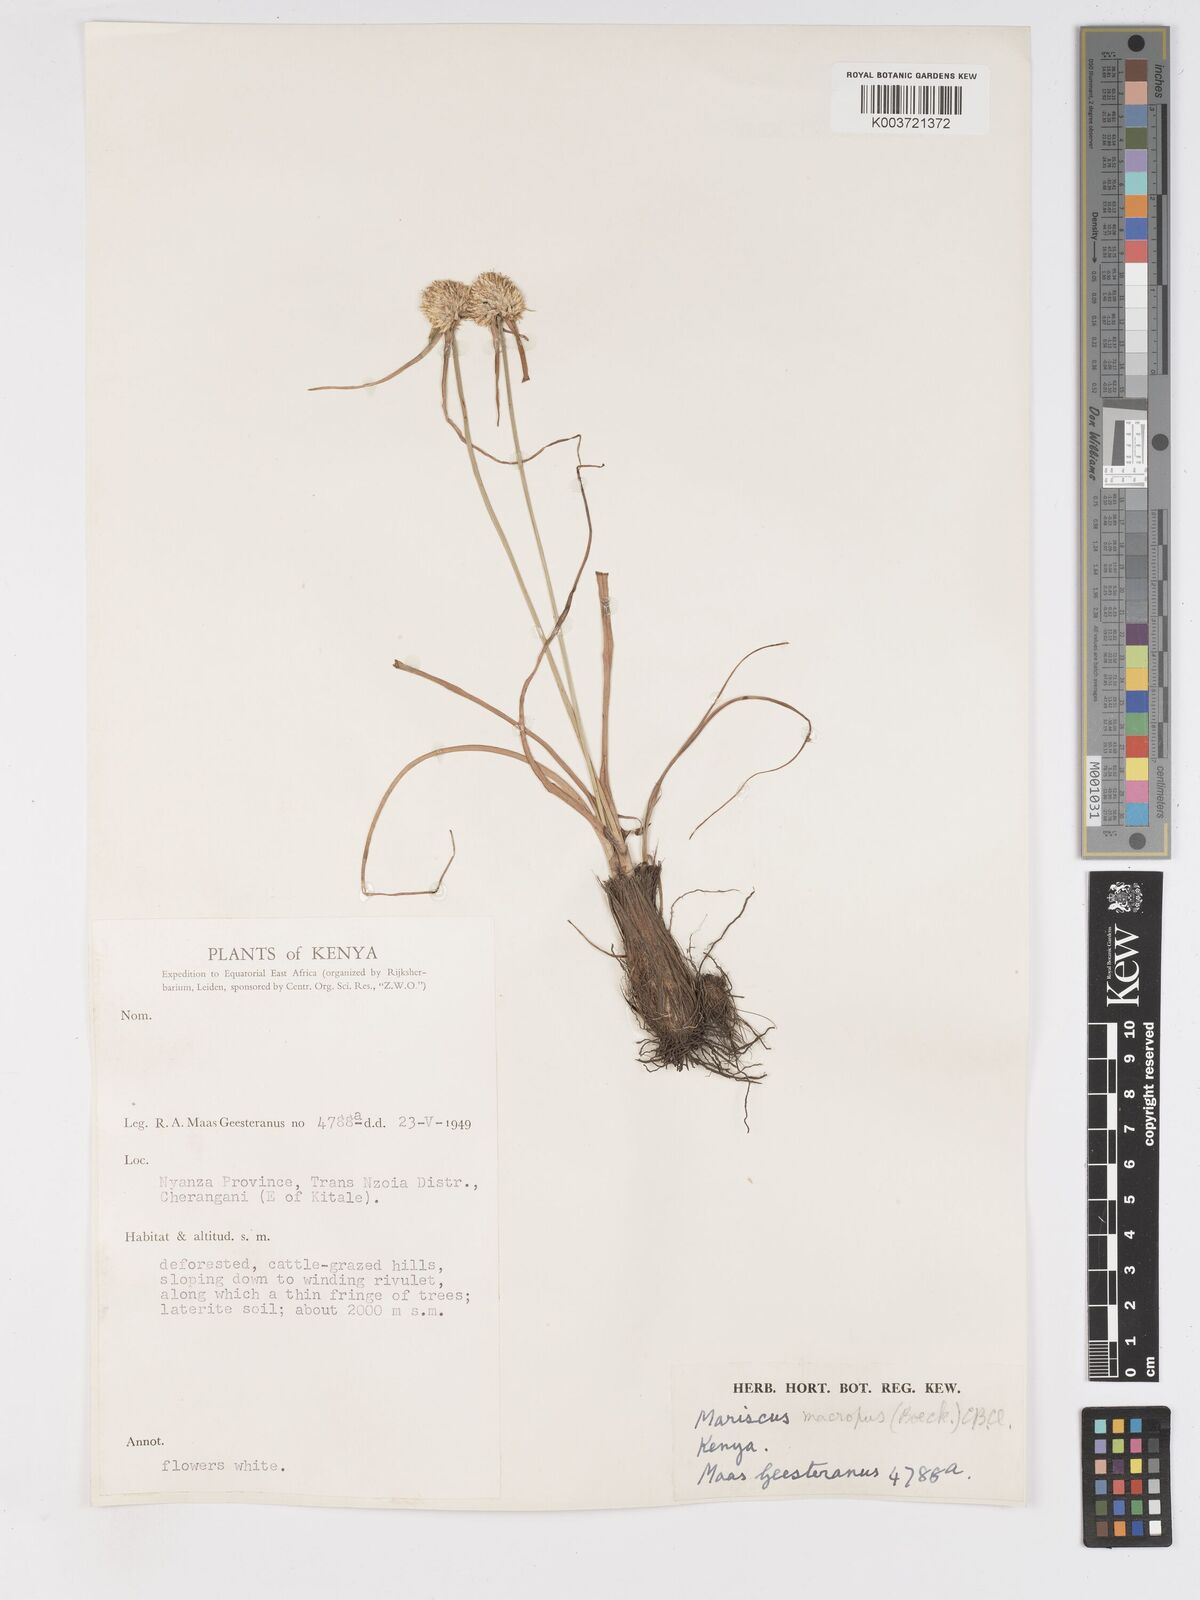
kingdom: Plantae
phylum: Tracheophyta
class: Liliopsida
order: Poales
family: Cyperaceae
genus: Cyperus
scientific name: Cyperus mollipes
